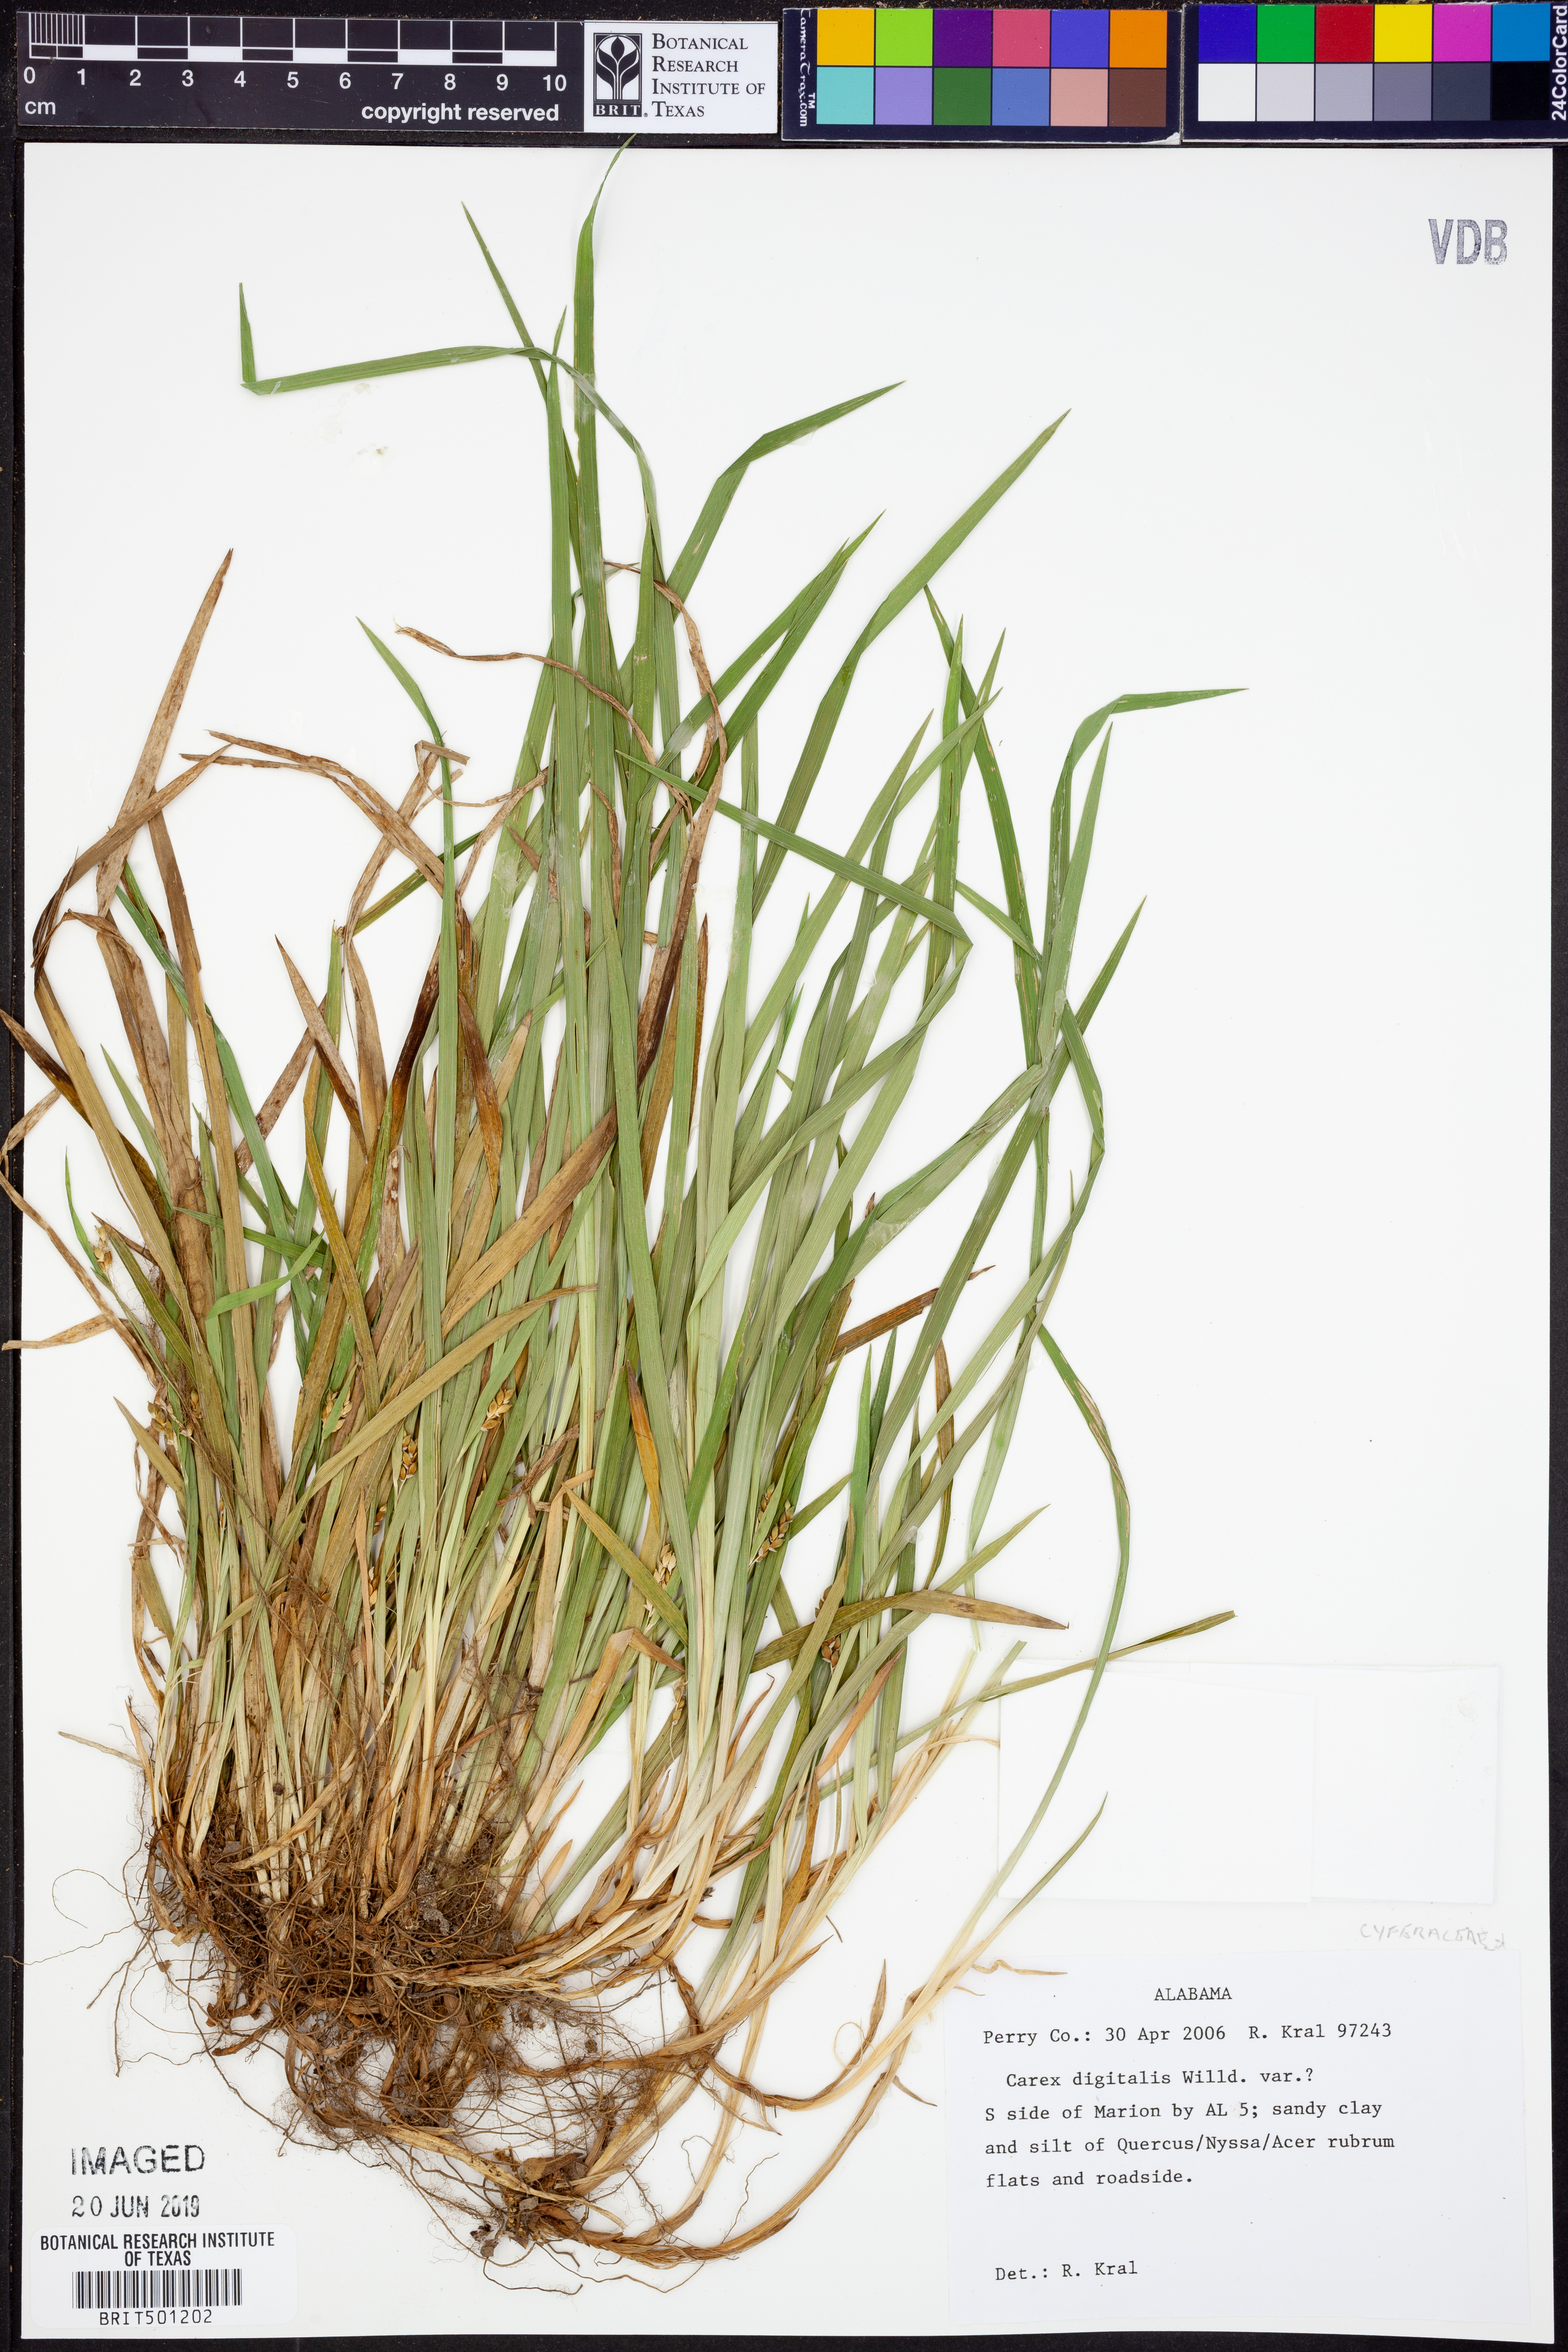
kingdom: Plantae
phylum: Tracheophyta
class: Liliopsida
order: Poales
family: Cyperaceae
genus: Carex
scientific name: Carex digitalis
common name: Slender wood sedge
